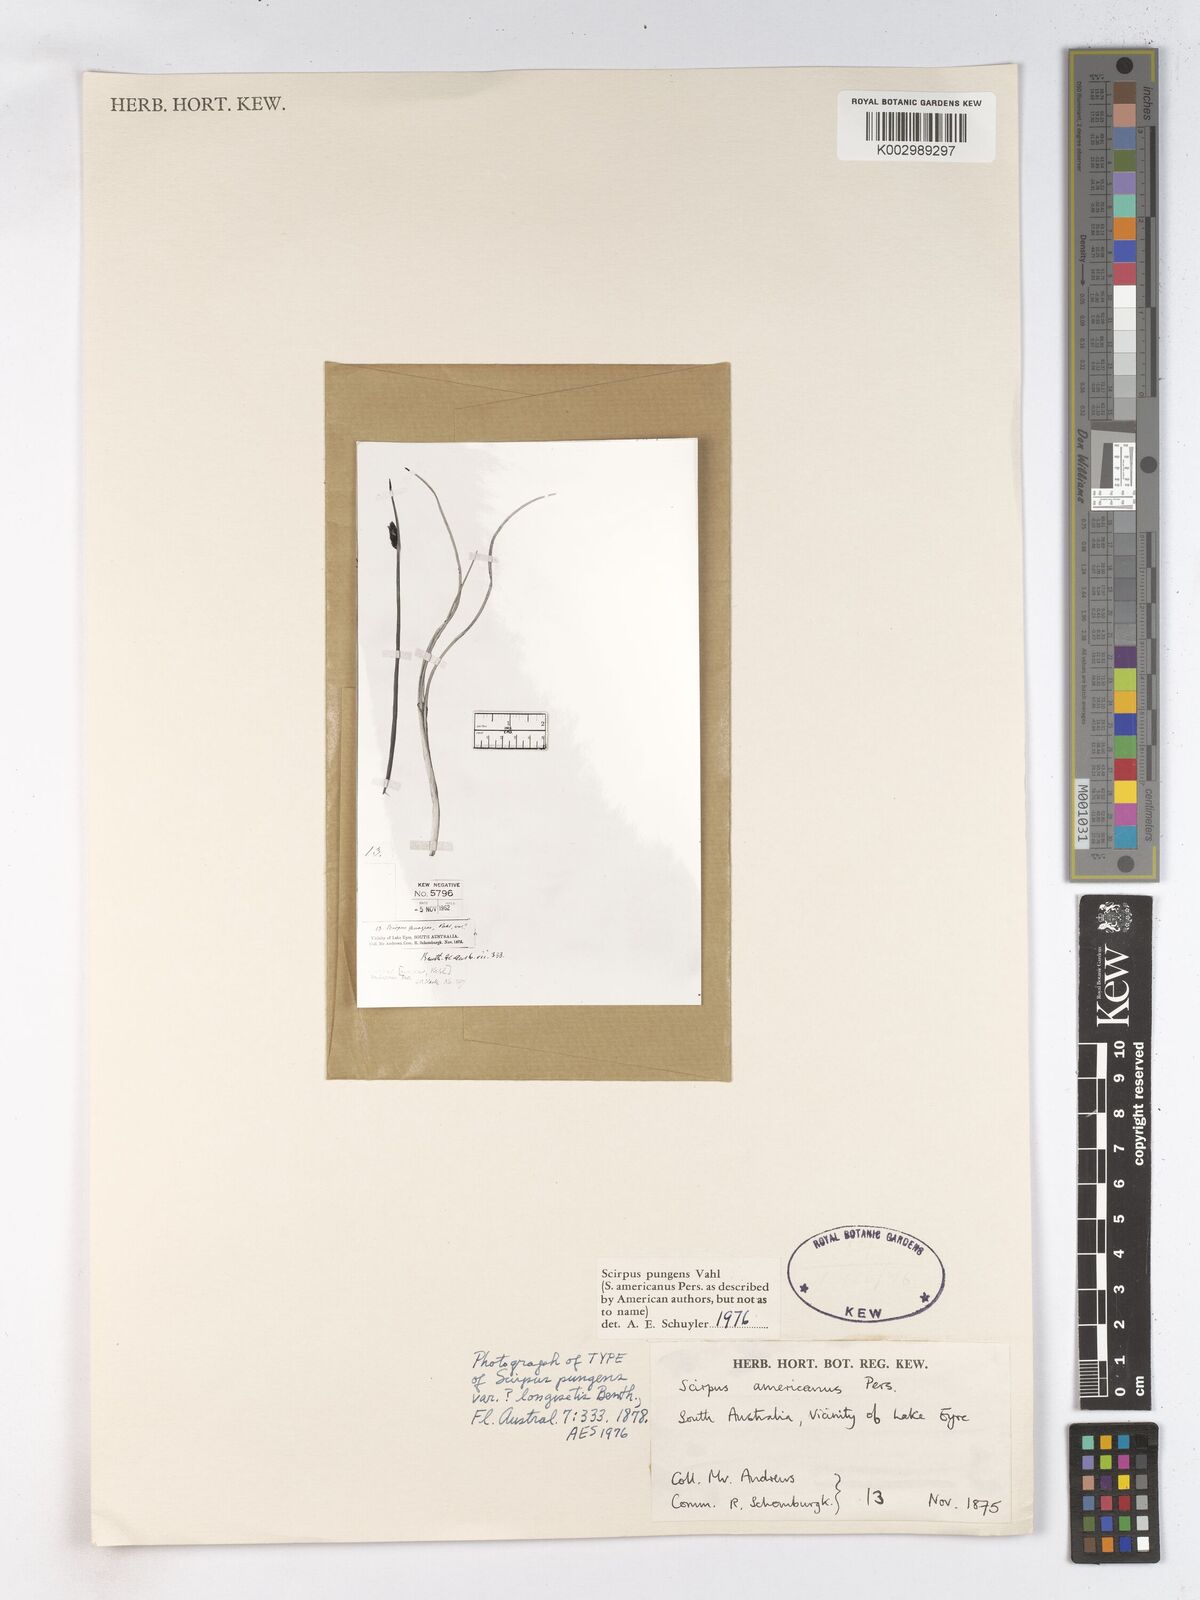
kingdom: Plantae
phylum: Tracheophyta
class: Liliopsida
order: Poales
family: Cyperaceae
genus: Schoenoplectus
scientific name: Schoenoplectus pungens
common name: Sharp club-rush
